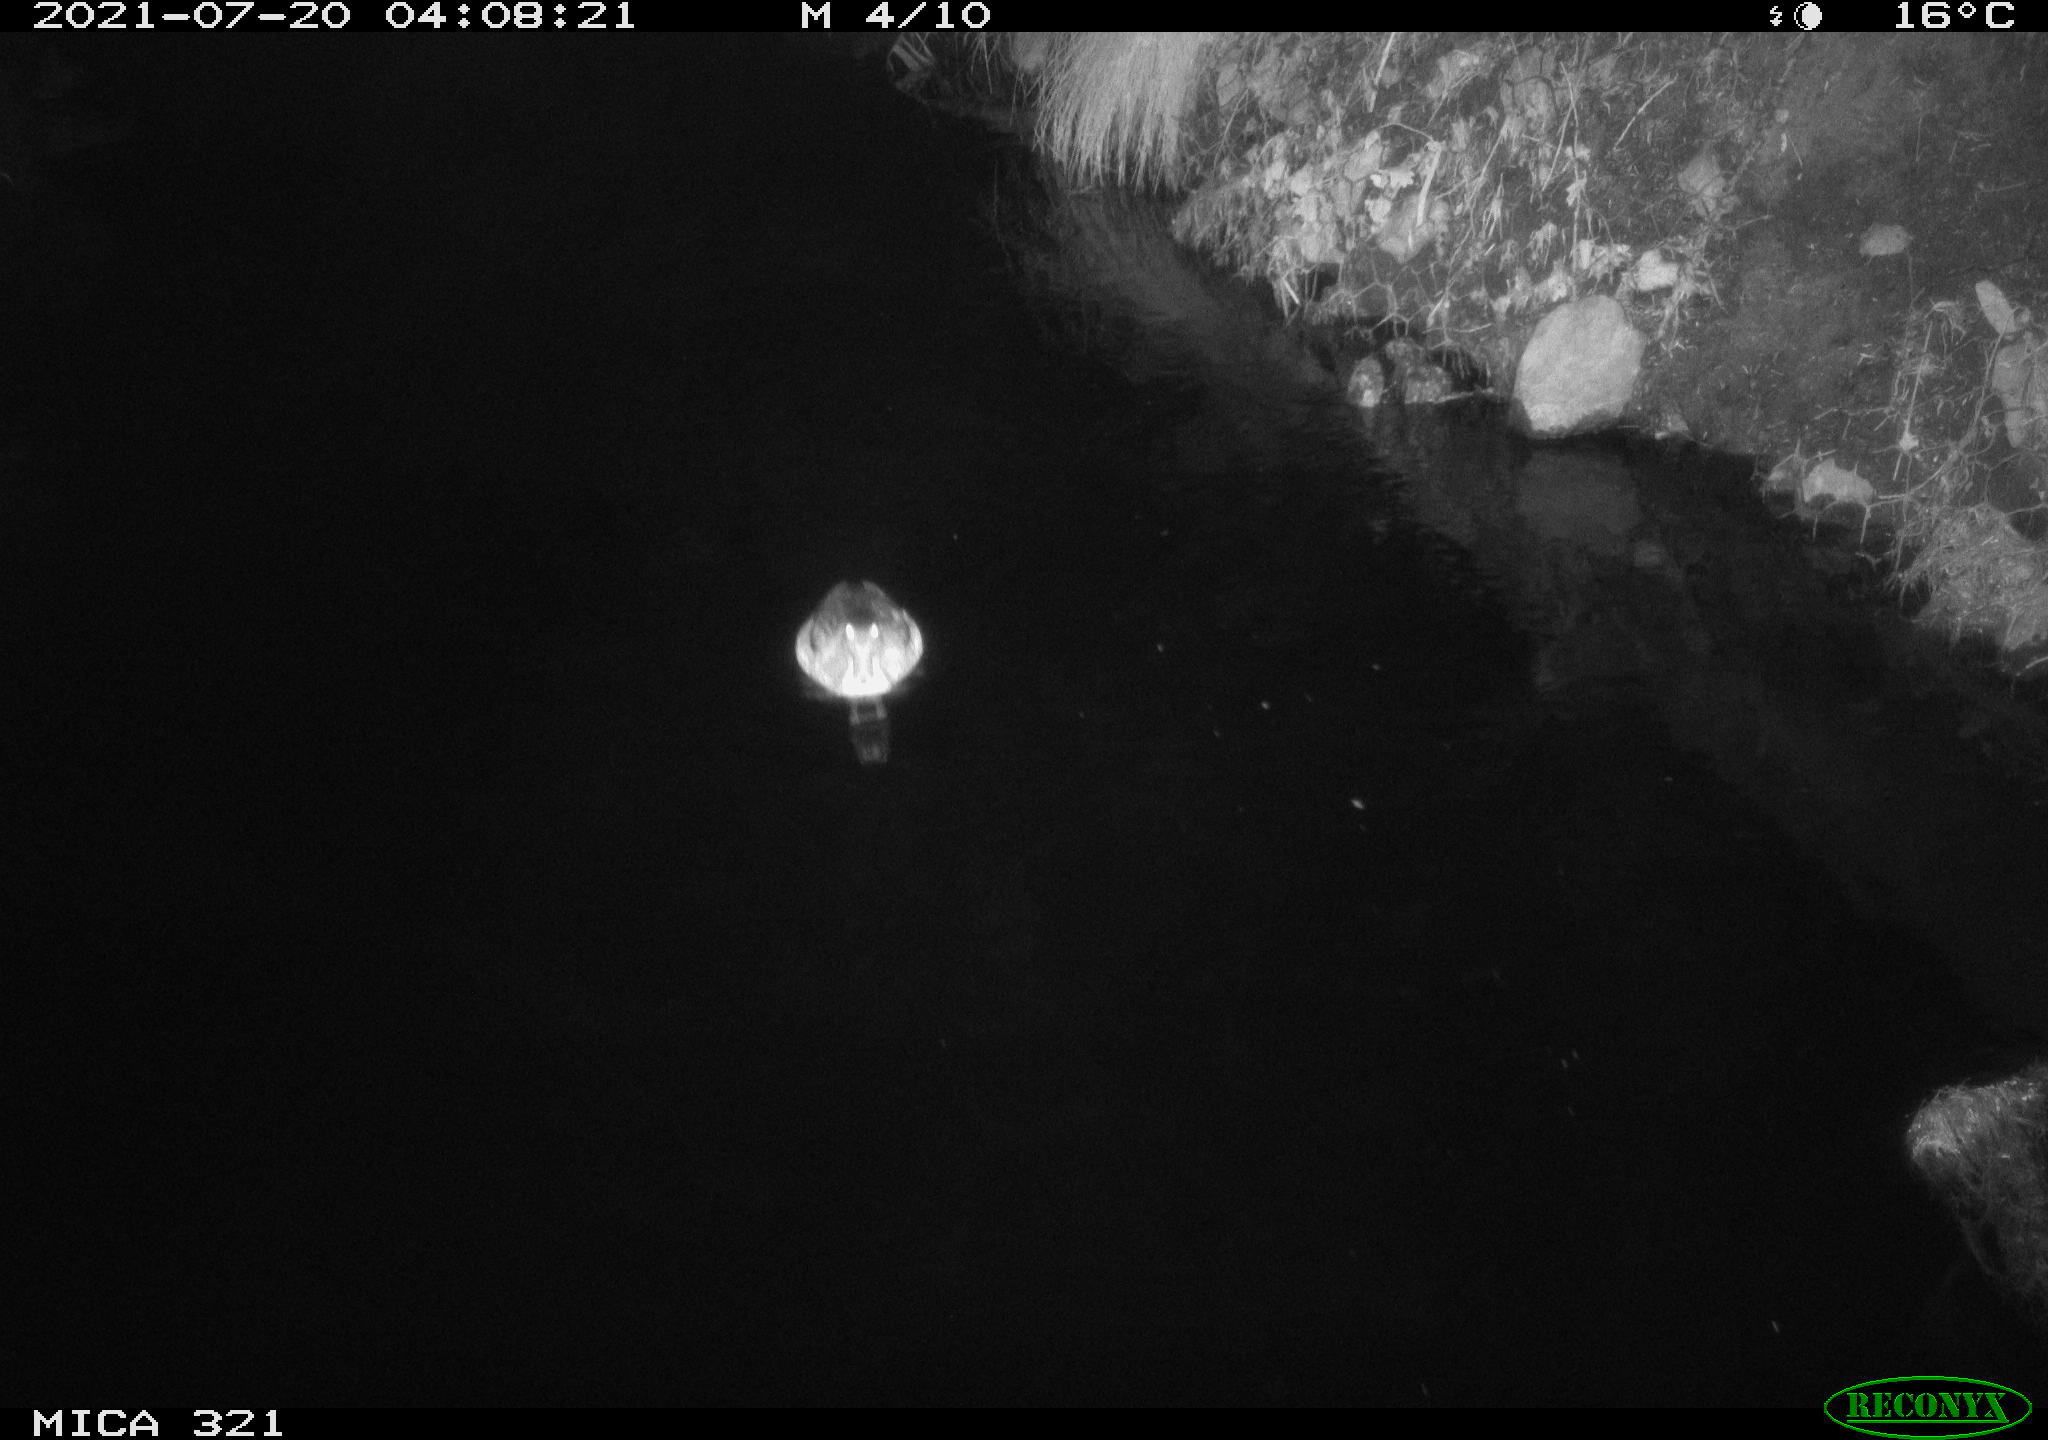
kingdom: Animalia
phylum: Chordata
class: Aves
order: Anseriformes
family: Anatidae
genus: Anas
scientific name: Anas platyrhynchos
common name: Mallard
